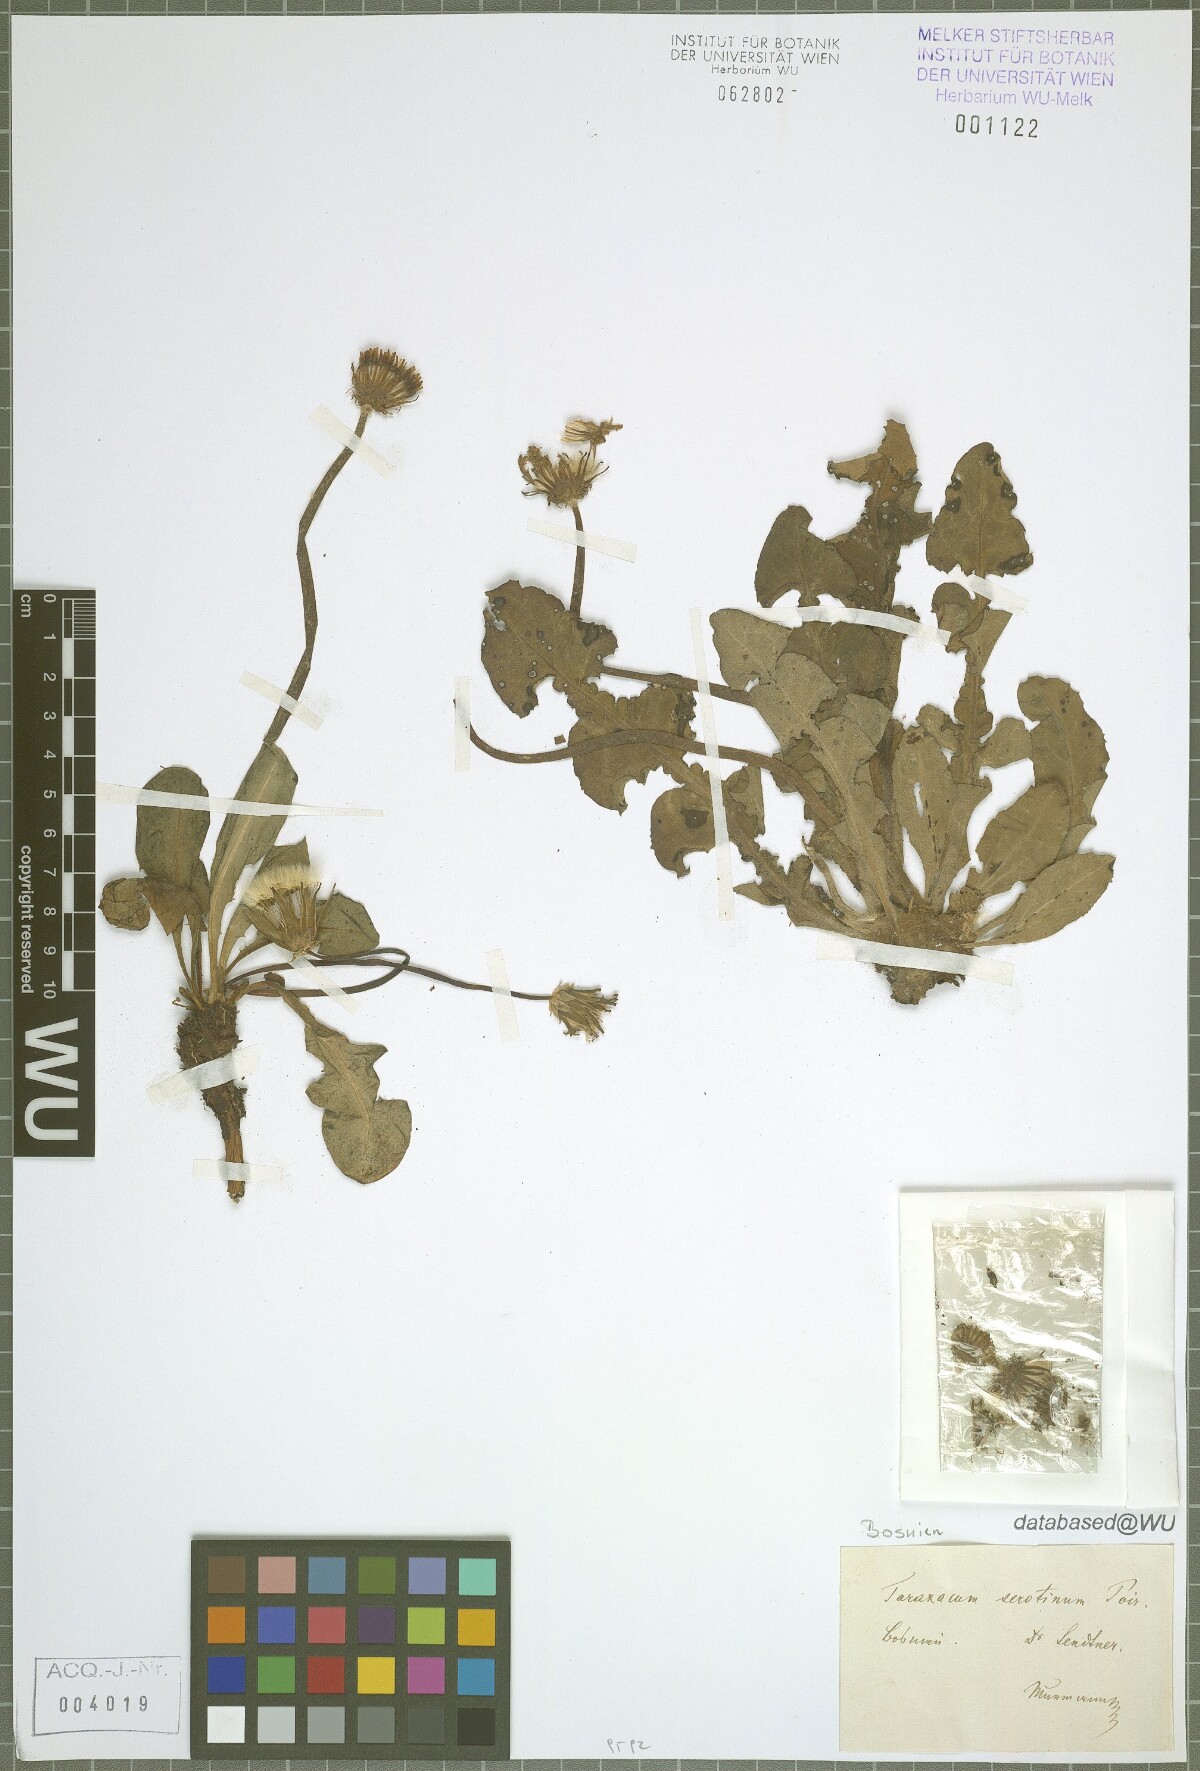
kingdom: Plantae
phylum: Tracheophyta
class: Magnoliopsida
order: Asterales
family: Asteraceae
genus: Taraxacum
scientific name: Taraxacum serotinum
